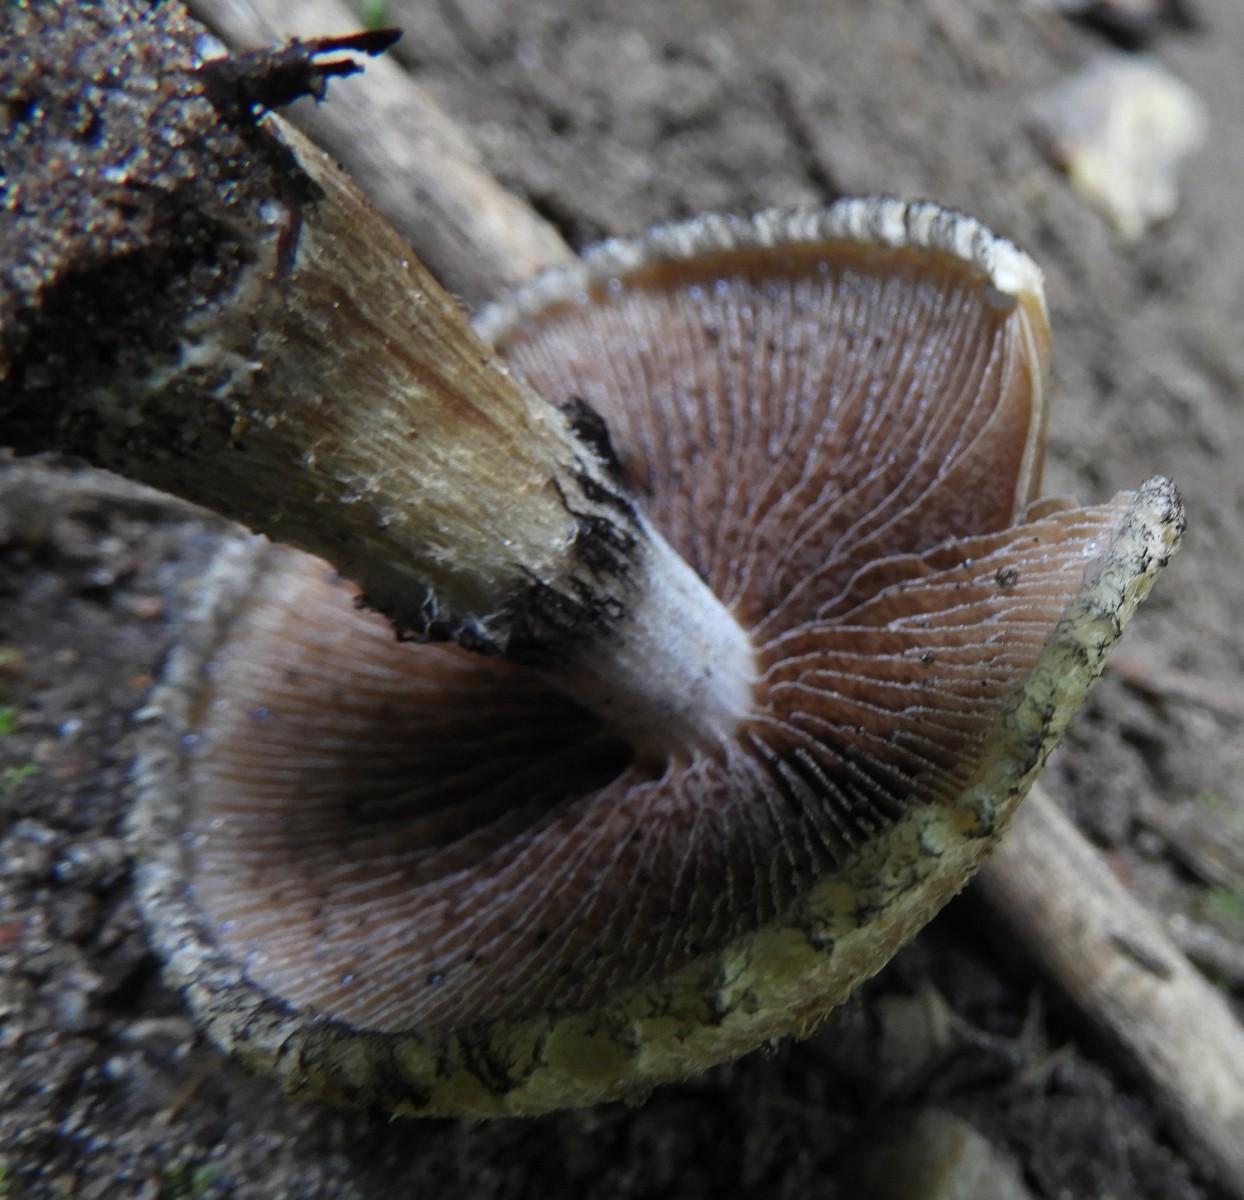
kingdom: Fungi
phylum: Basidiomycota
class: Agaricomycetes
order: Agaricales
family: Psathyrellaceae
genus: Lacrymaria
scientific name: Lacrymaria lacrymabunda
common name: grædende mørkhat
